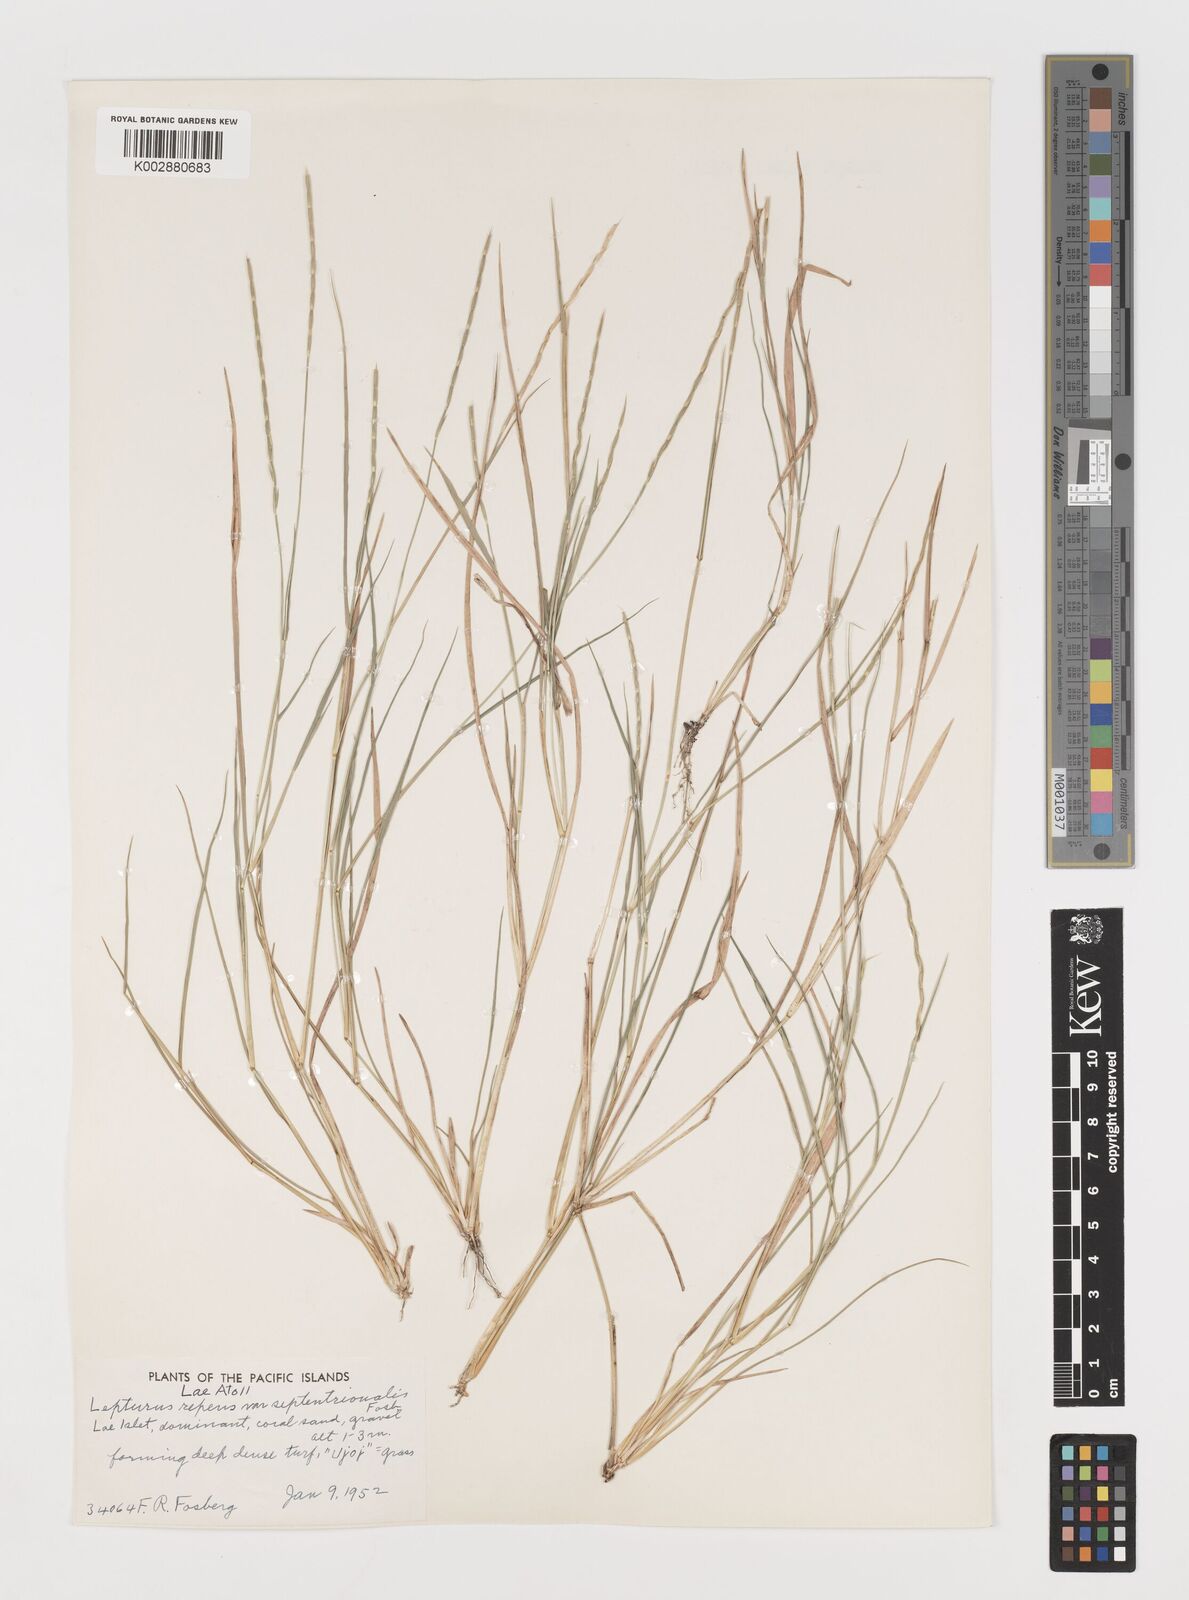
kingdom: Plantae
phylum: Tracheophyta
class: Liliopsida
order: Poales
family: Poaceae
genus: Lepturus
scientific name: Lepturus repens
